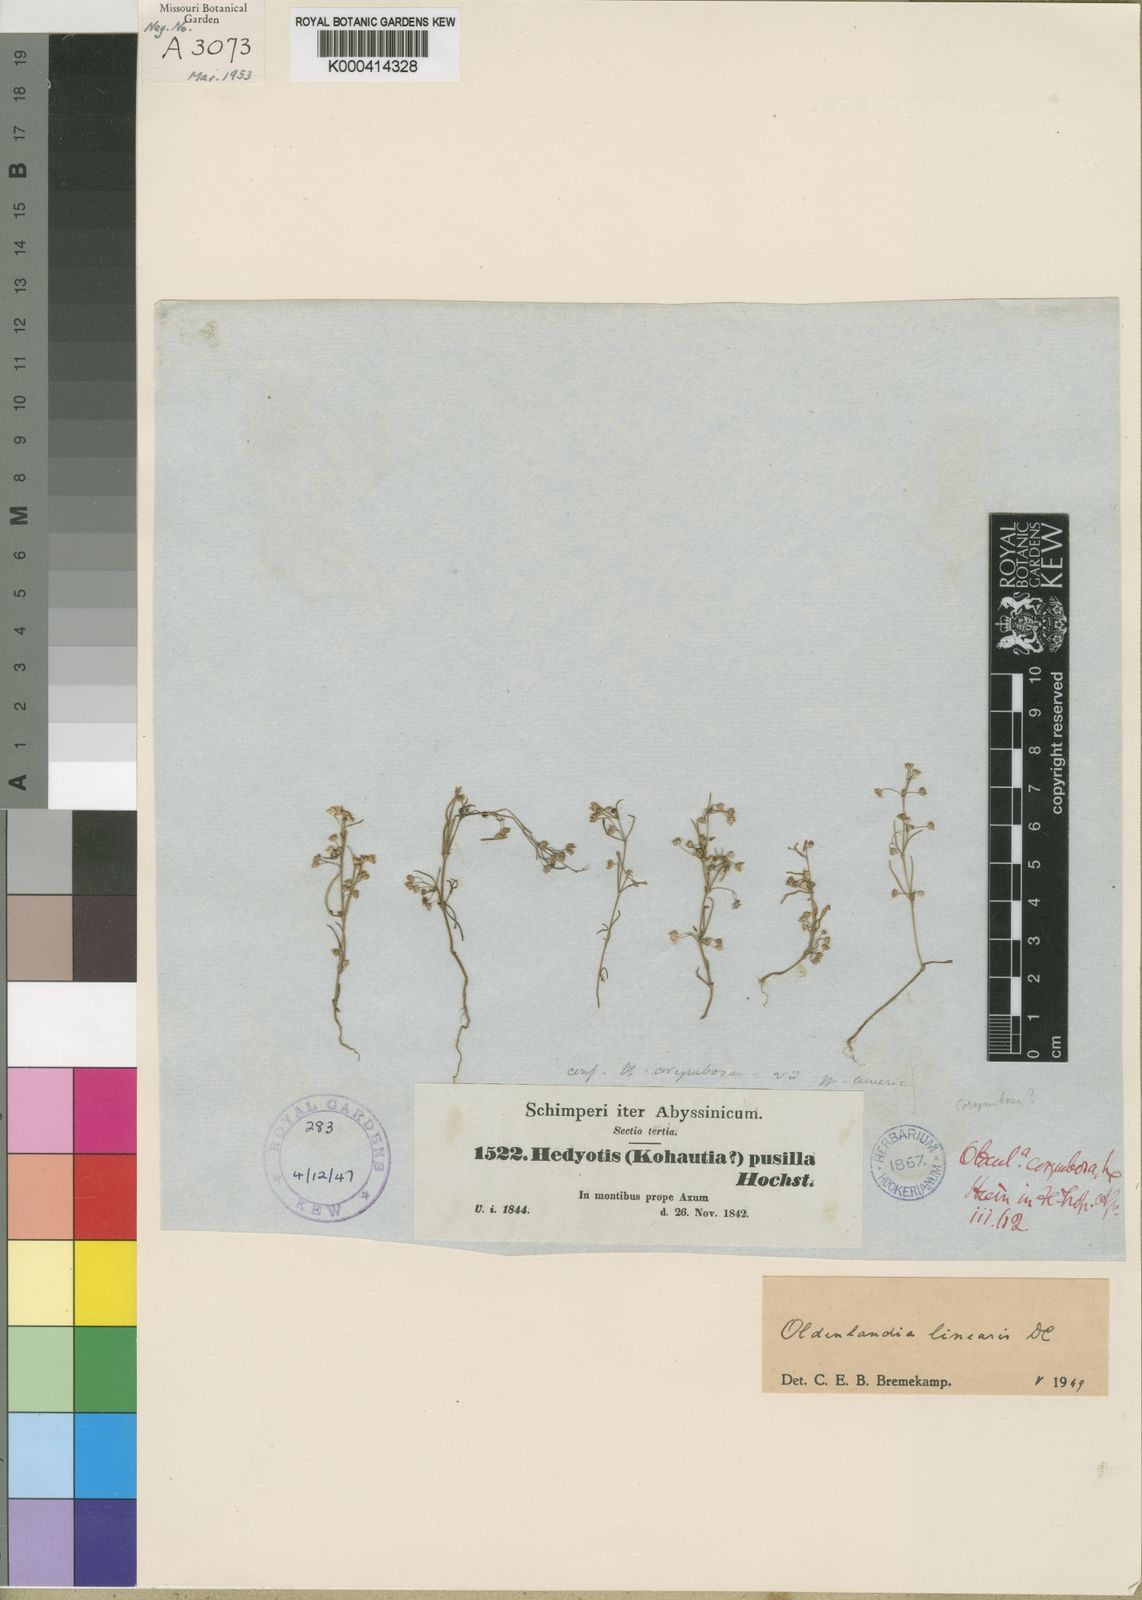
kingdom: Plantae
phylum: Tracheophyta
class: Magnoliopsida
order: Gentianales
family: Rubiaceae
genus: Oldenlandia
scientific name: Oldenlandia corymbosa
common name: Flat-top mille graines
